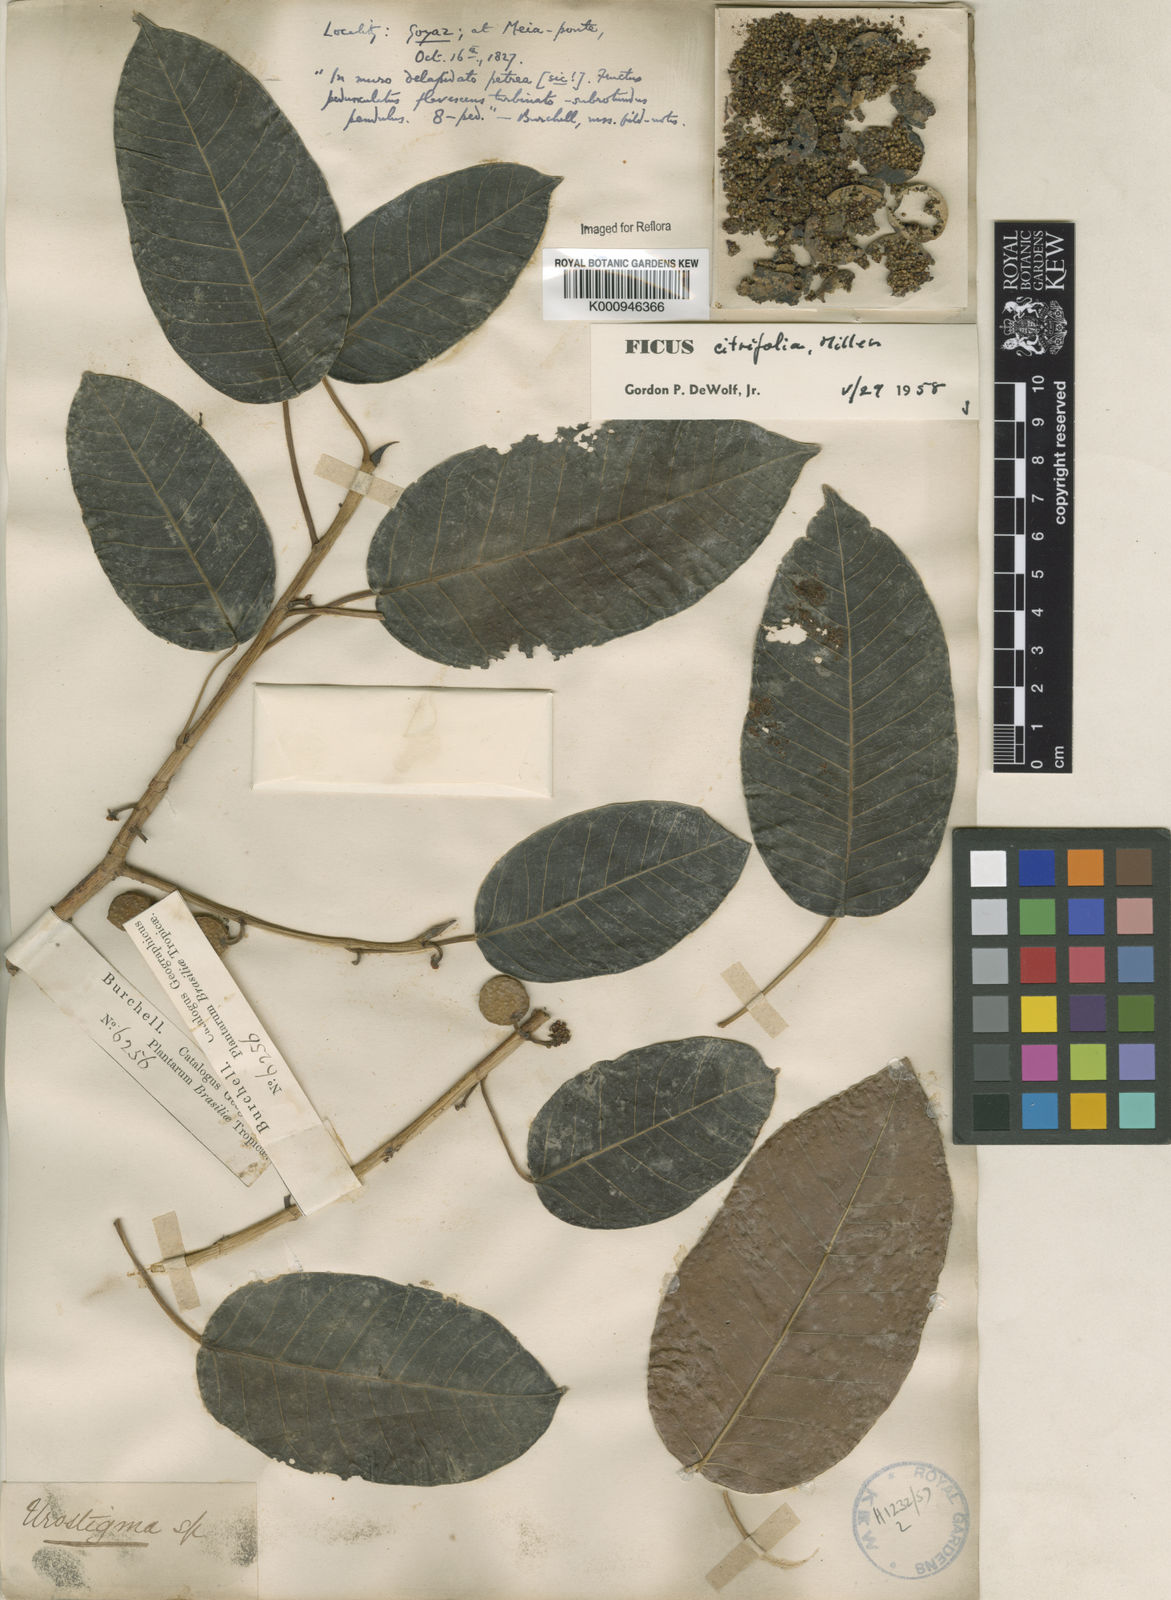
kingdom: Plantae
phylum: Tracheophyta
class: Magnoliopsida
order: Rosales
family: Moraceae
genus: Ficus
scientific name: Ficus citrifolia
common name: Strangler fig
